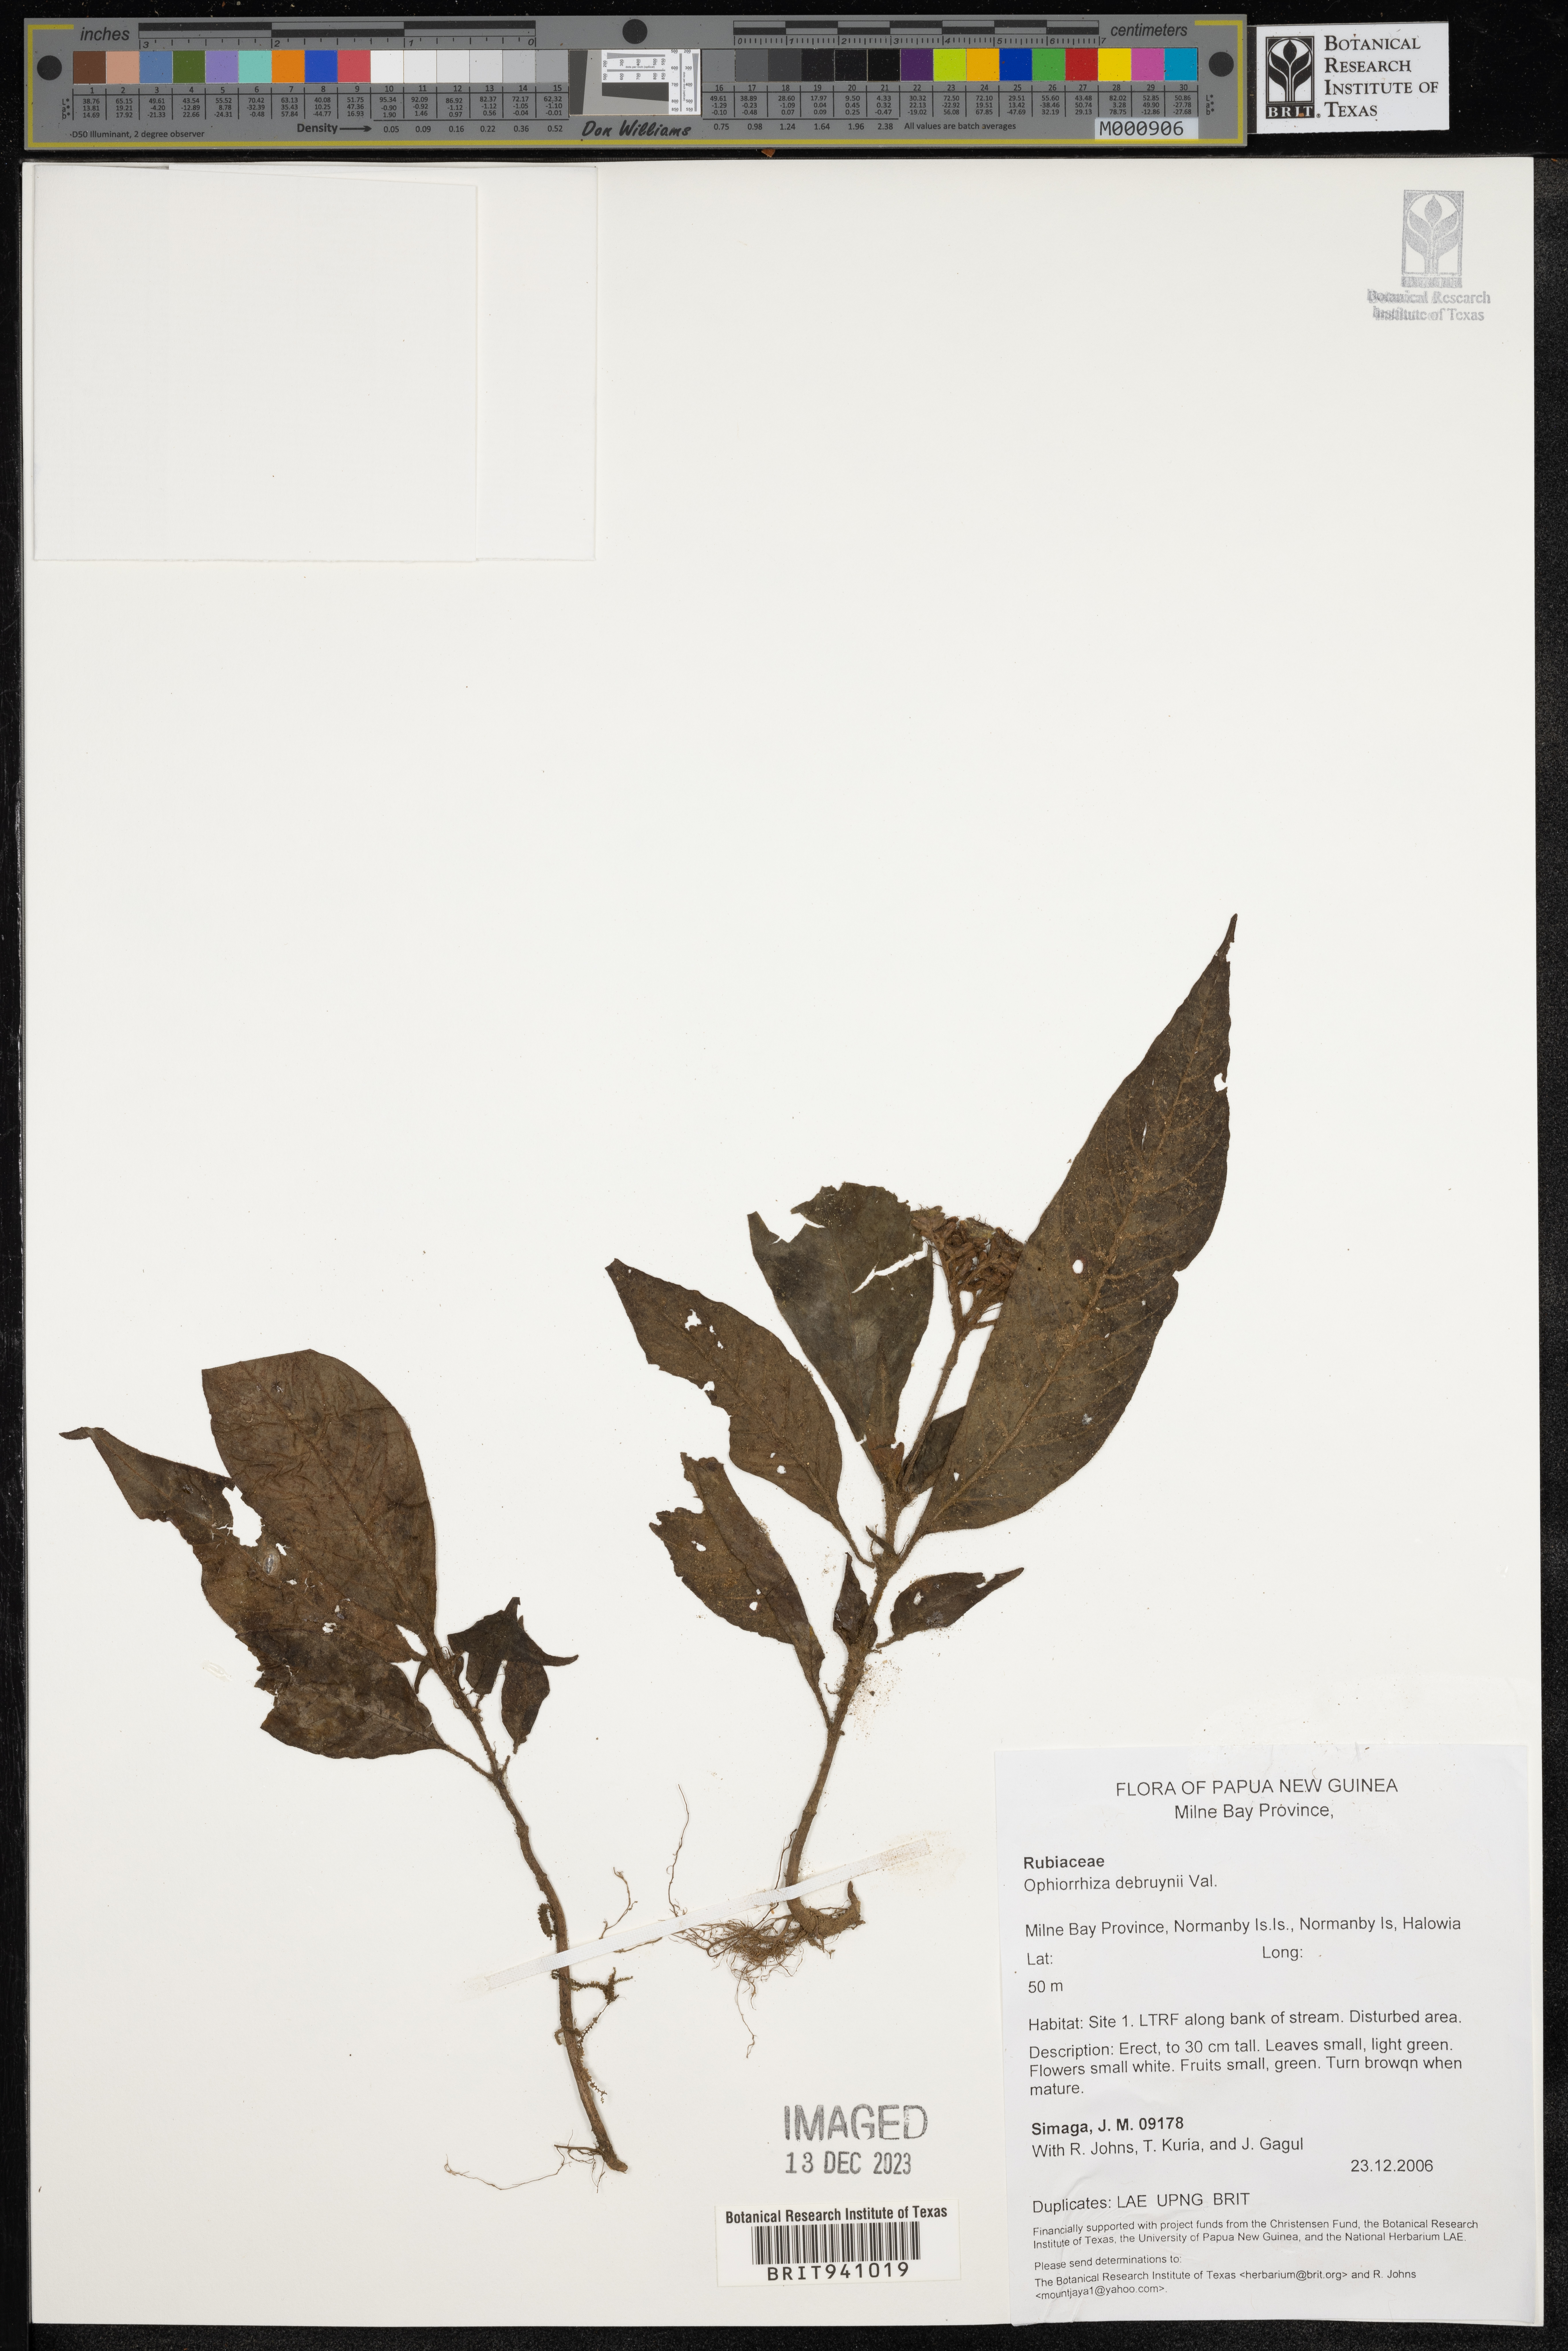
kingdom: Plantae
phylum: Tracheophyta
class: Magnoliopsida
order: Gentianales
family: Rubiaceae
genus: Ophiorrhiza
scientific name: Ophiorrhiza
